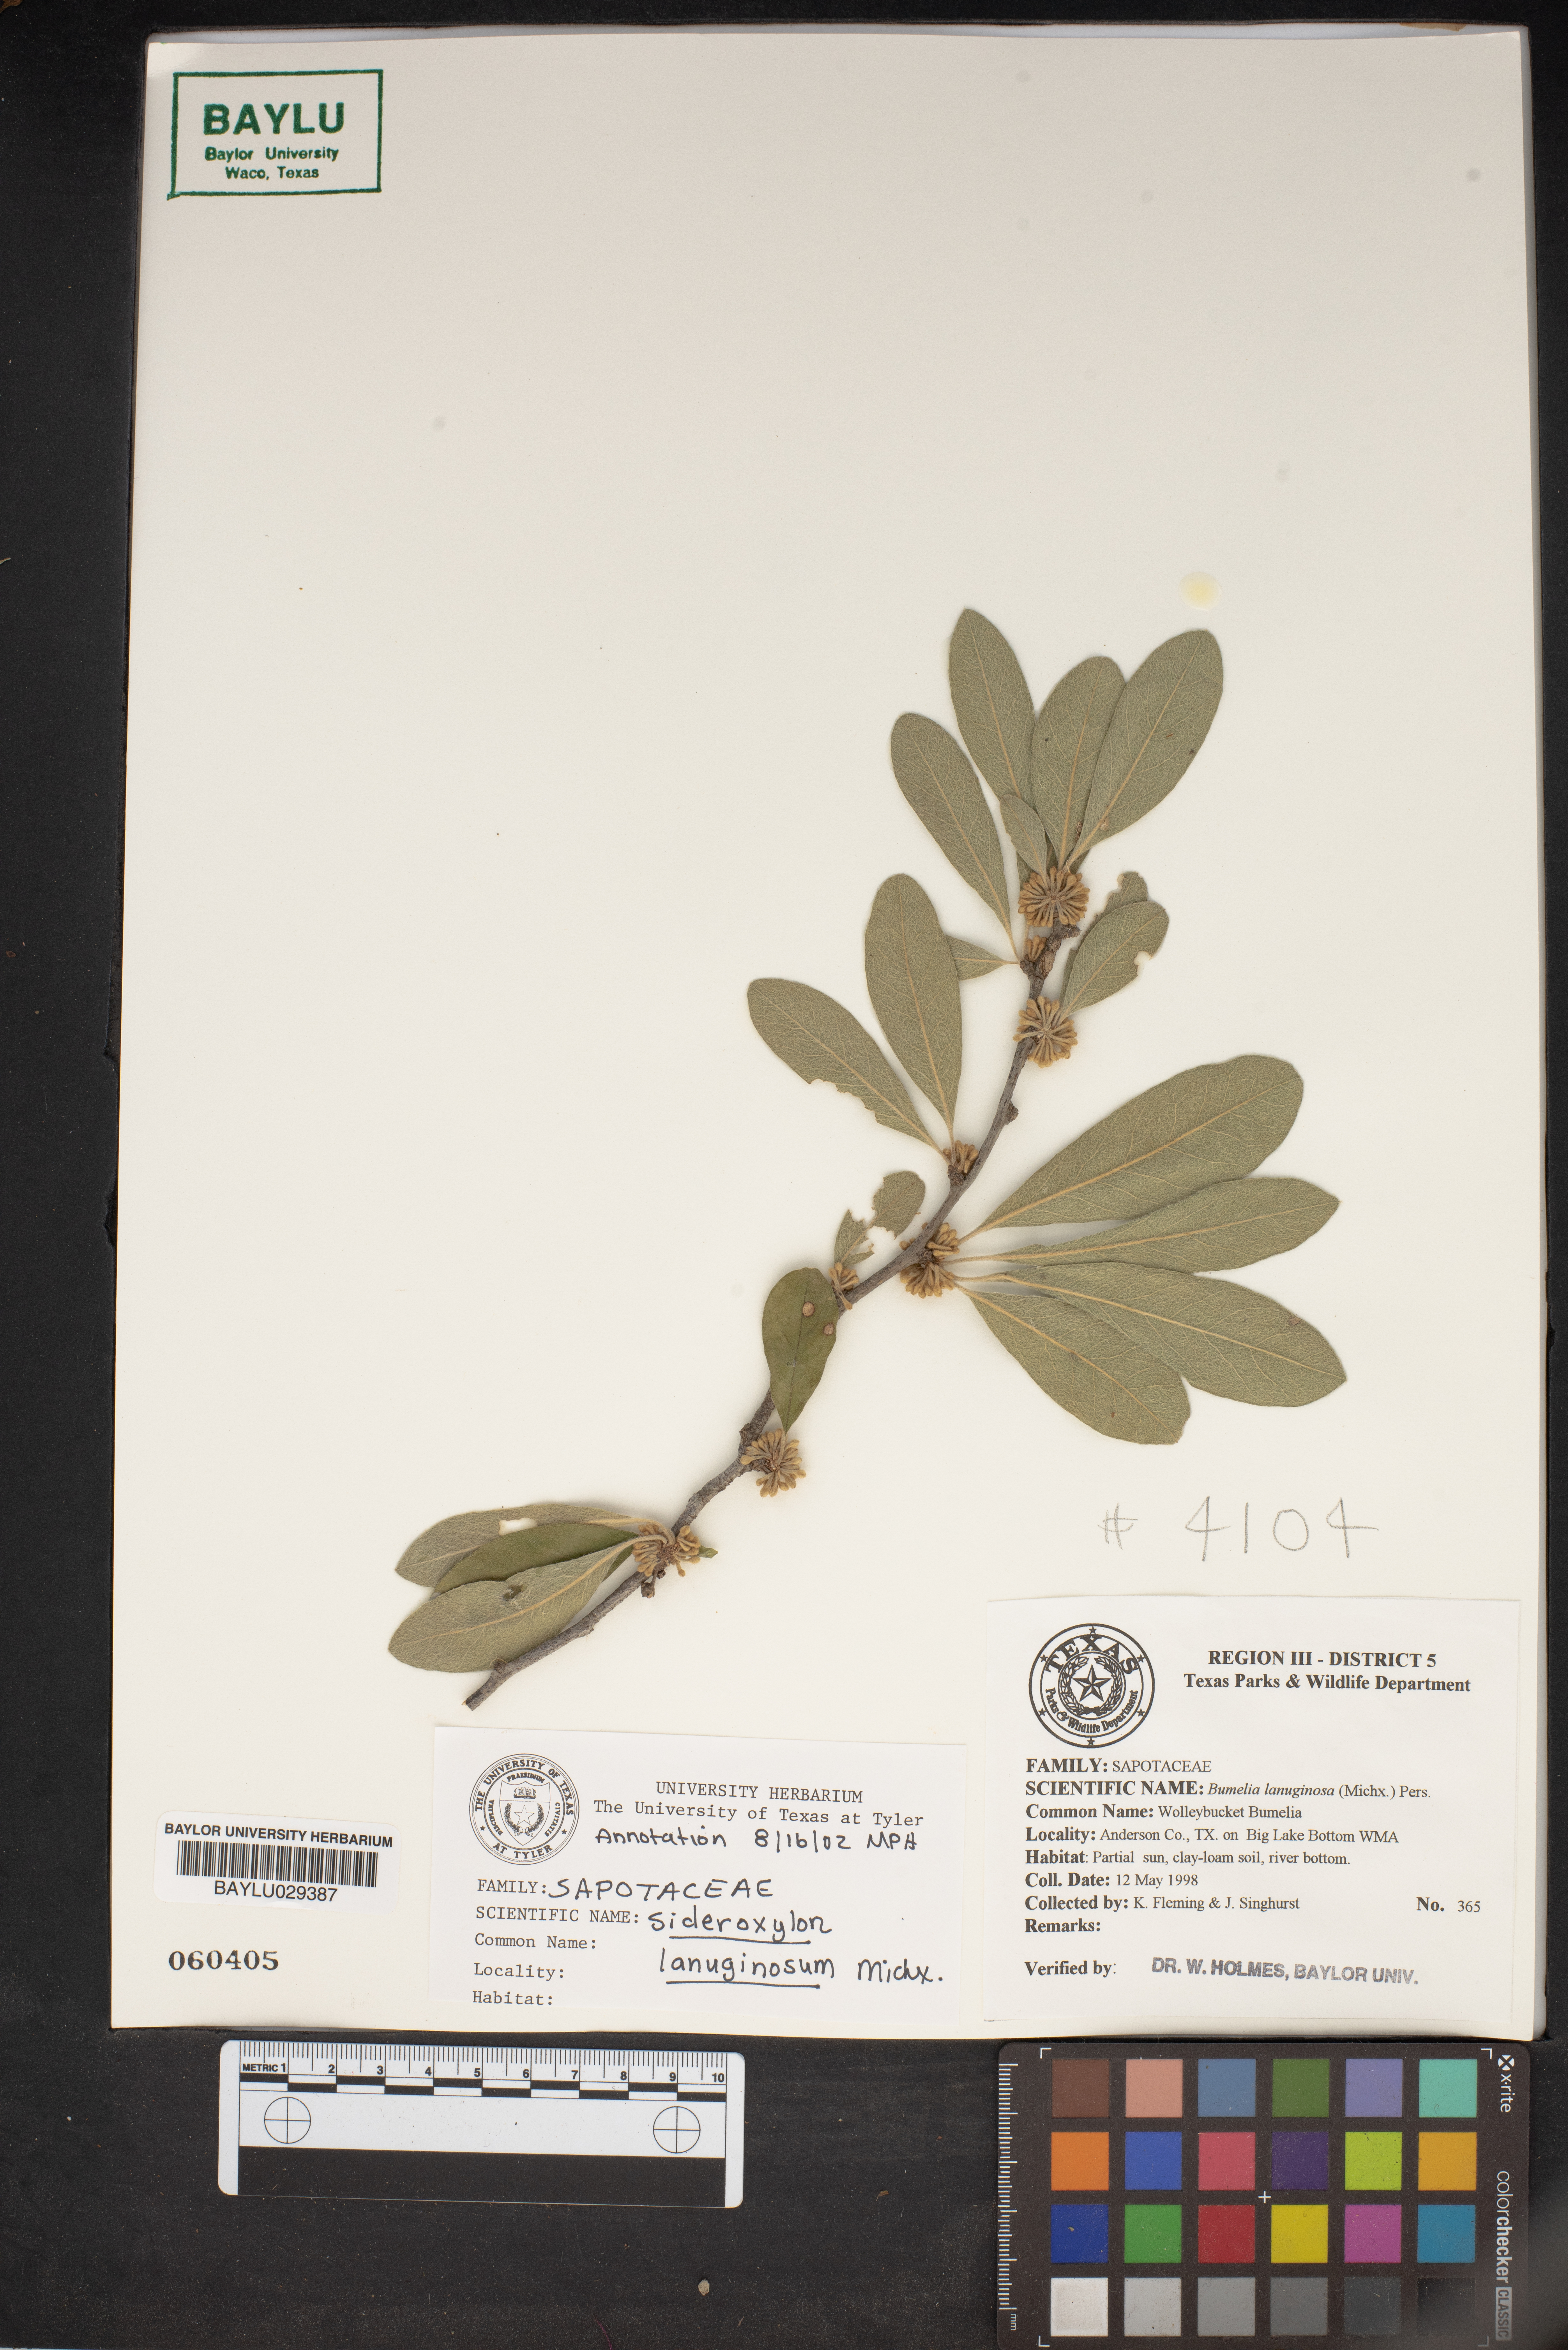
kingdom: Plantae
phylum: Tracheophyta
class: Magnoliopsida
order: Ericales
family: Sapotaceae
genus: Sideroxylon
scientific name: Sideroxylon lanuginosum
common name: Chittamwood
